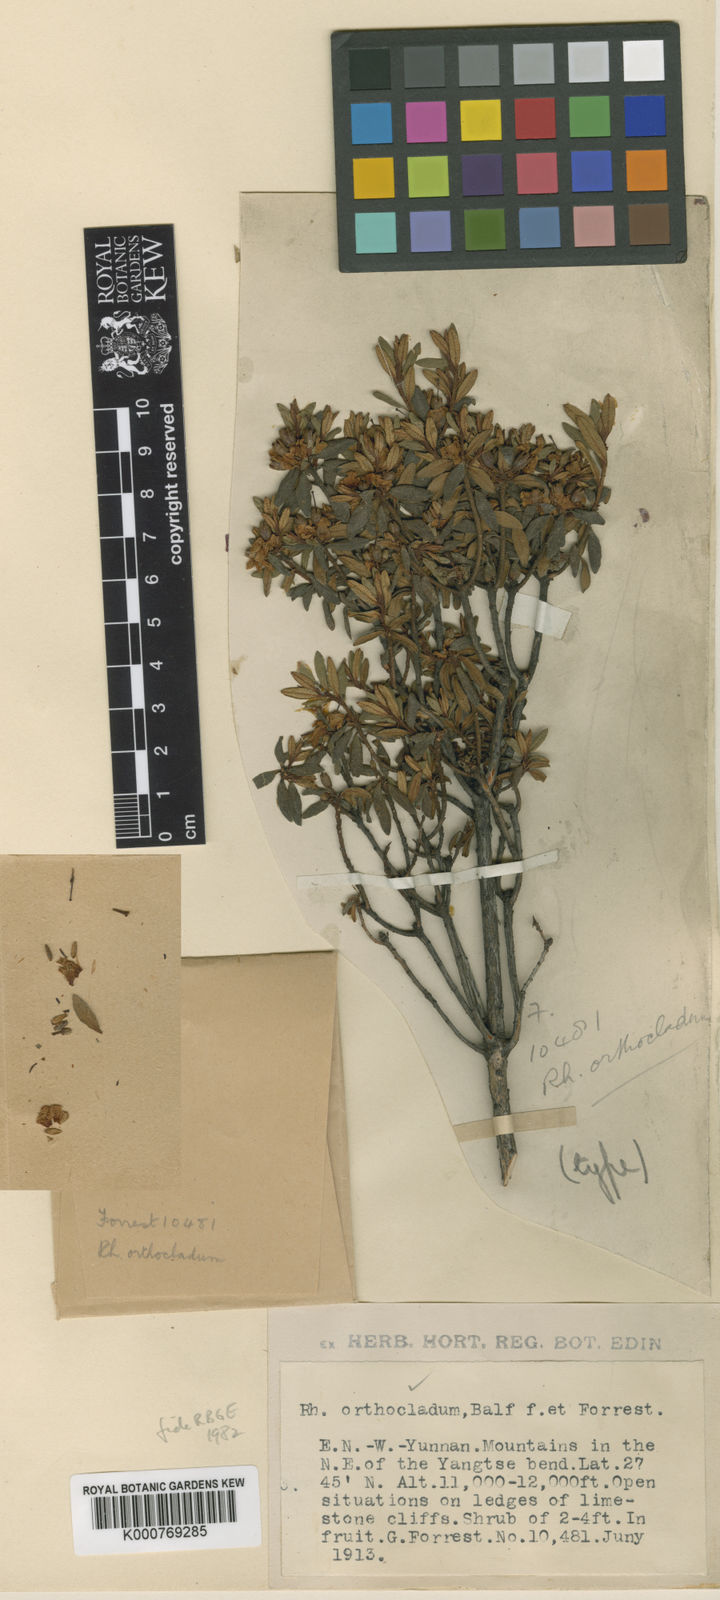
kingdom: Plantae
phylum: Tracheophyta
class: Magnoliopsida
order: Ericales
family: Ericaceae
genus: Rhododendron
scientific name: Rhododendron orthocladum
